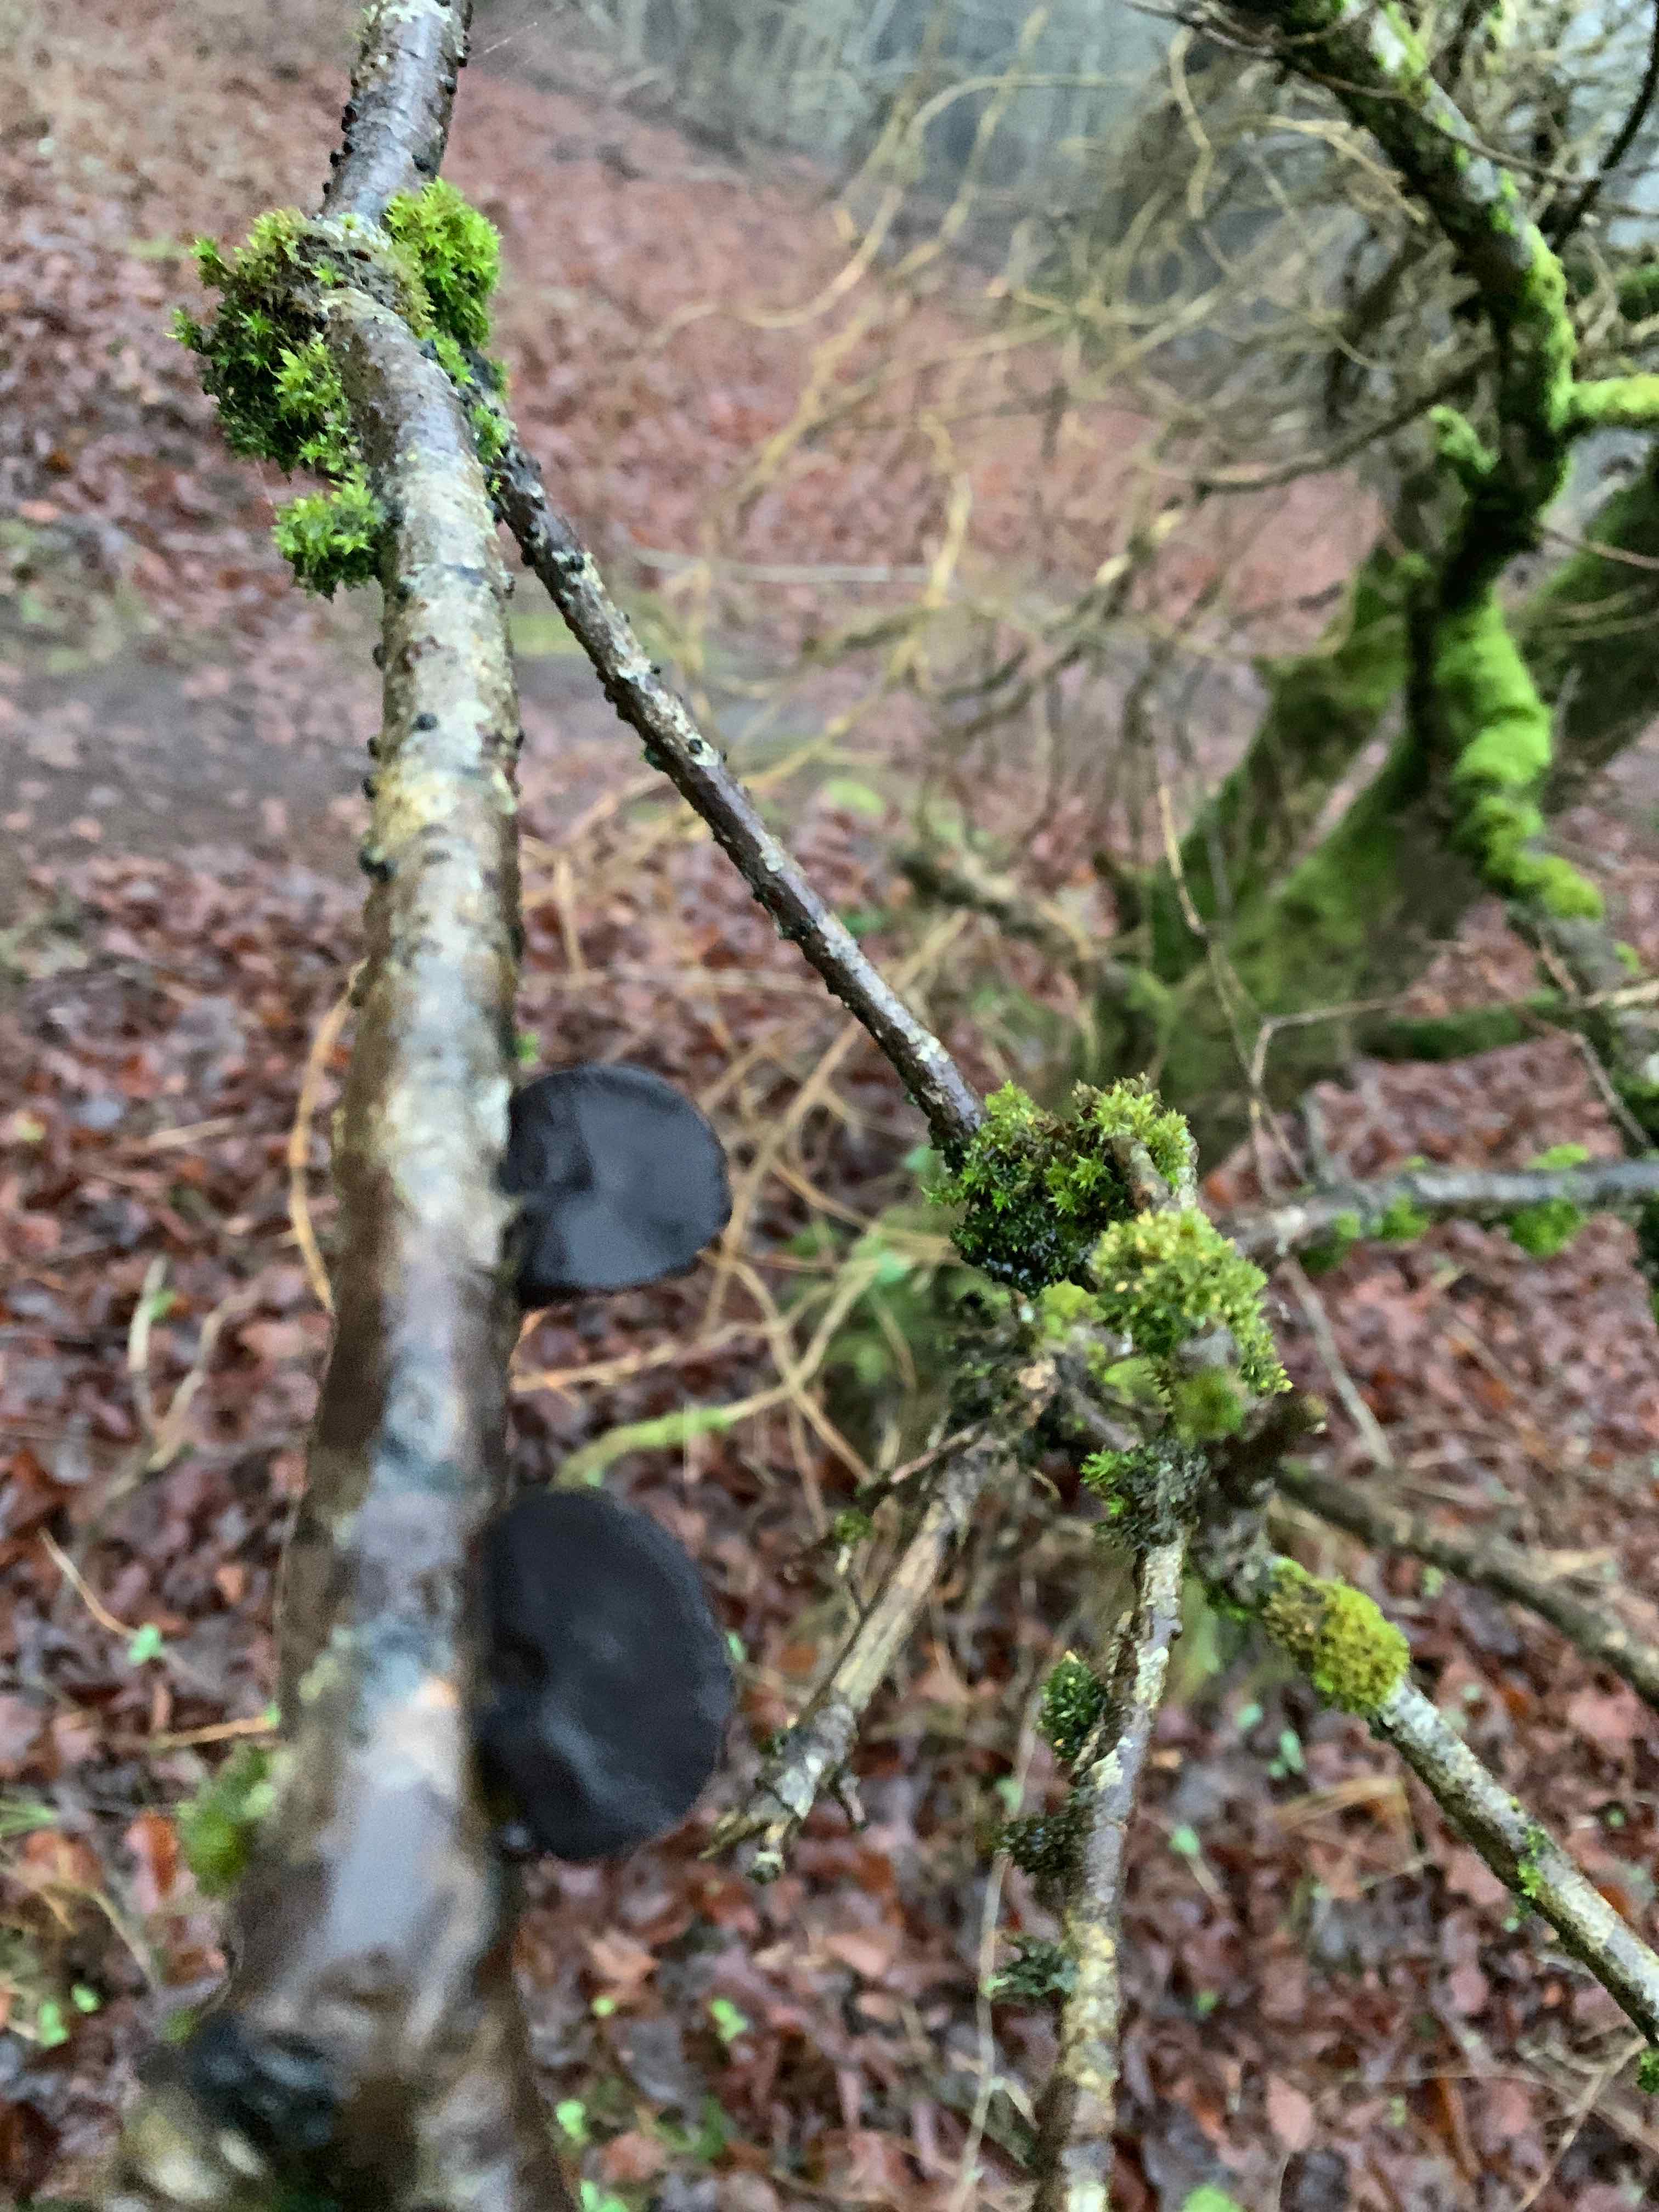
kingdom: Fungi
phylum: Basidiomycota
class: Agaricomycetes
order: Auriculariales
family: Auriculariaceae
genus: Exidia
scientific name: Exidia glandulosa
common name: ege-bævretop
